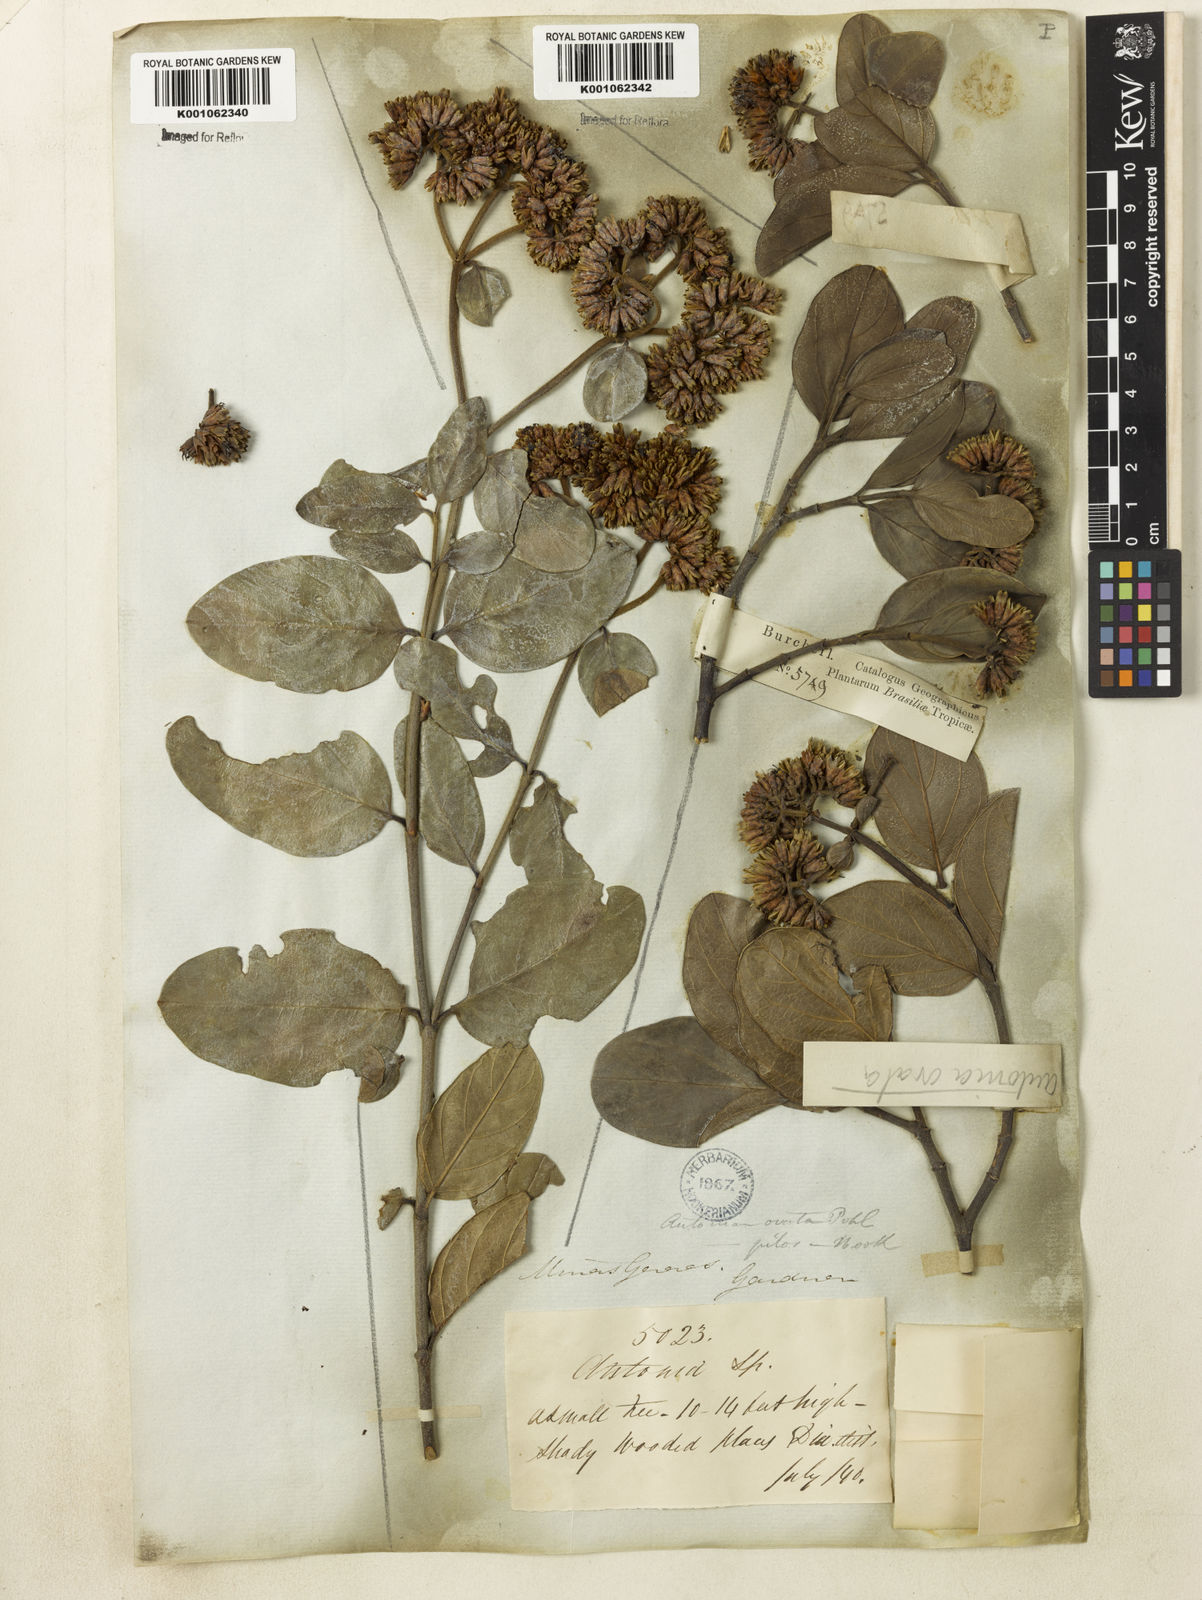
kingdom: Plantae
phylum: Tracheophyta
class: Magnoliopsida
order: Gentianales
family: Loganiaceae
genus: Antonia
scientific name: Antonia ovata
